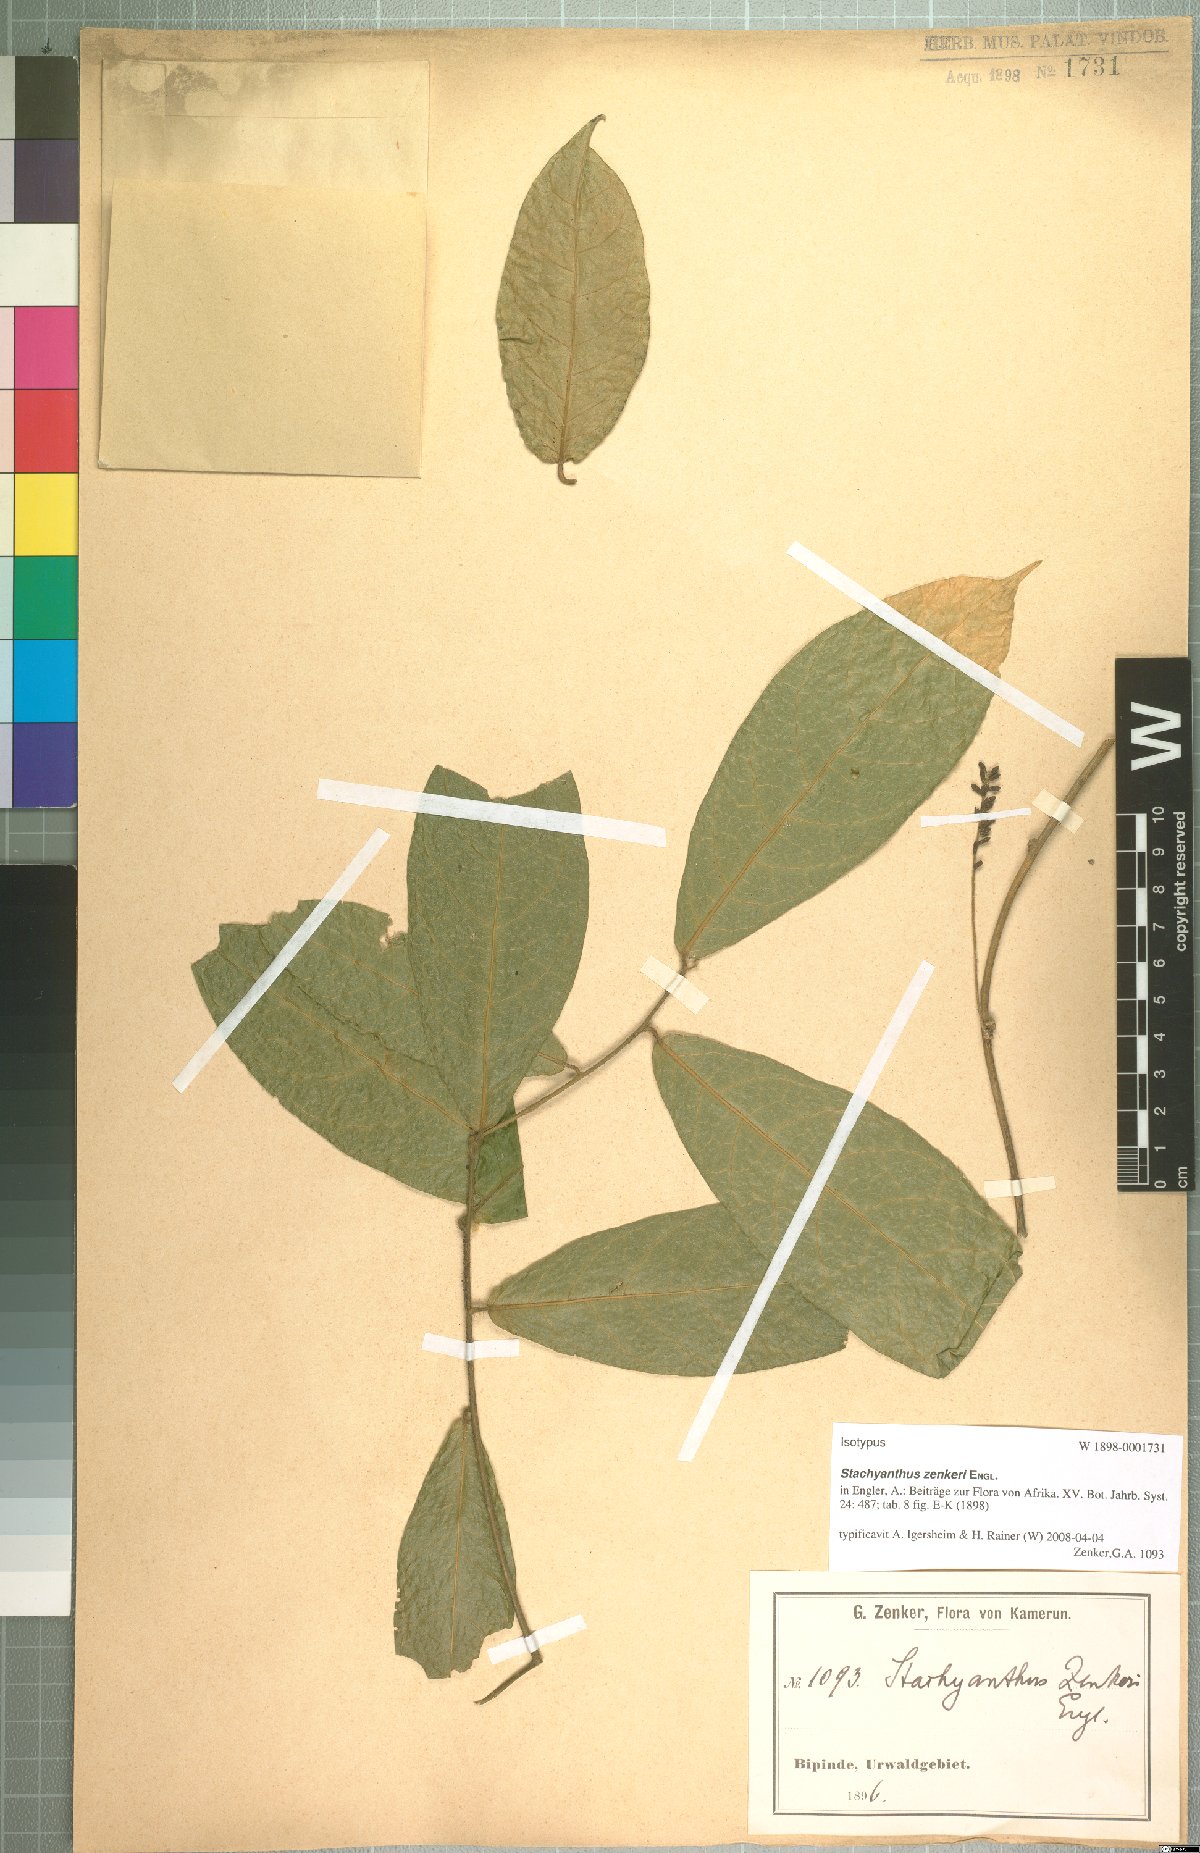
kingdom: Plantae
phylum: Tracheophyta
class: Magnoliopsida
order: Icacinales
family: Icacinaceae
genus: Stachyanthus
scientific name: Stachyanthus zenkeri
